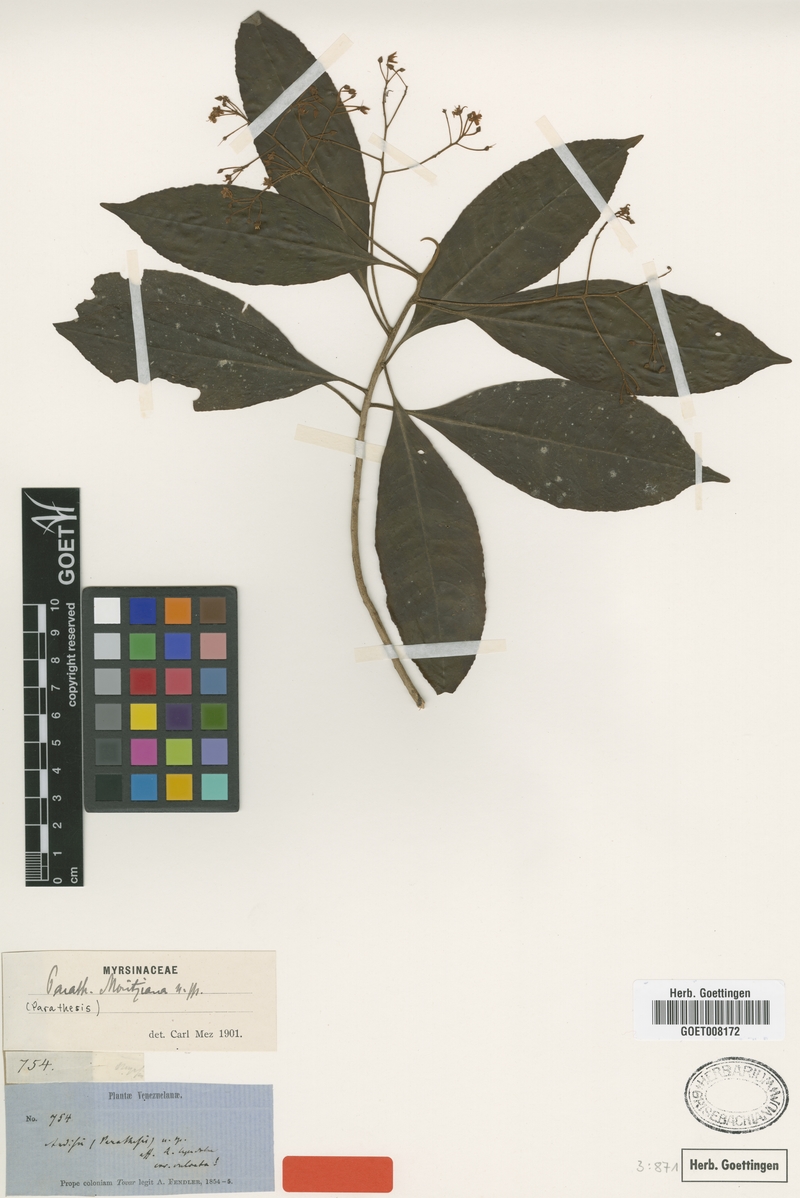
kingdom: Plantae
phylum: Tracheophyta
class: Magnoliopsida
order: Ericales
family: Primulaceae
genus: Parathesis
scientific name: Parathesis moritziana
